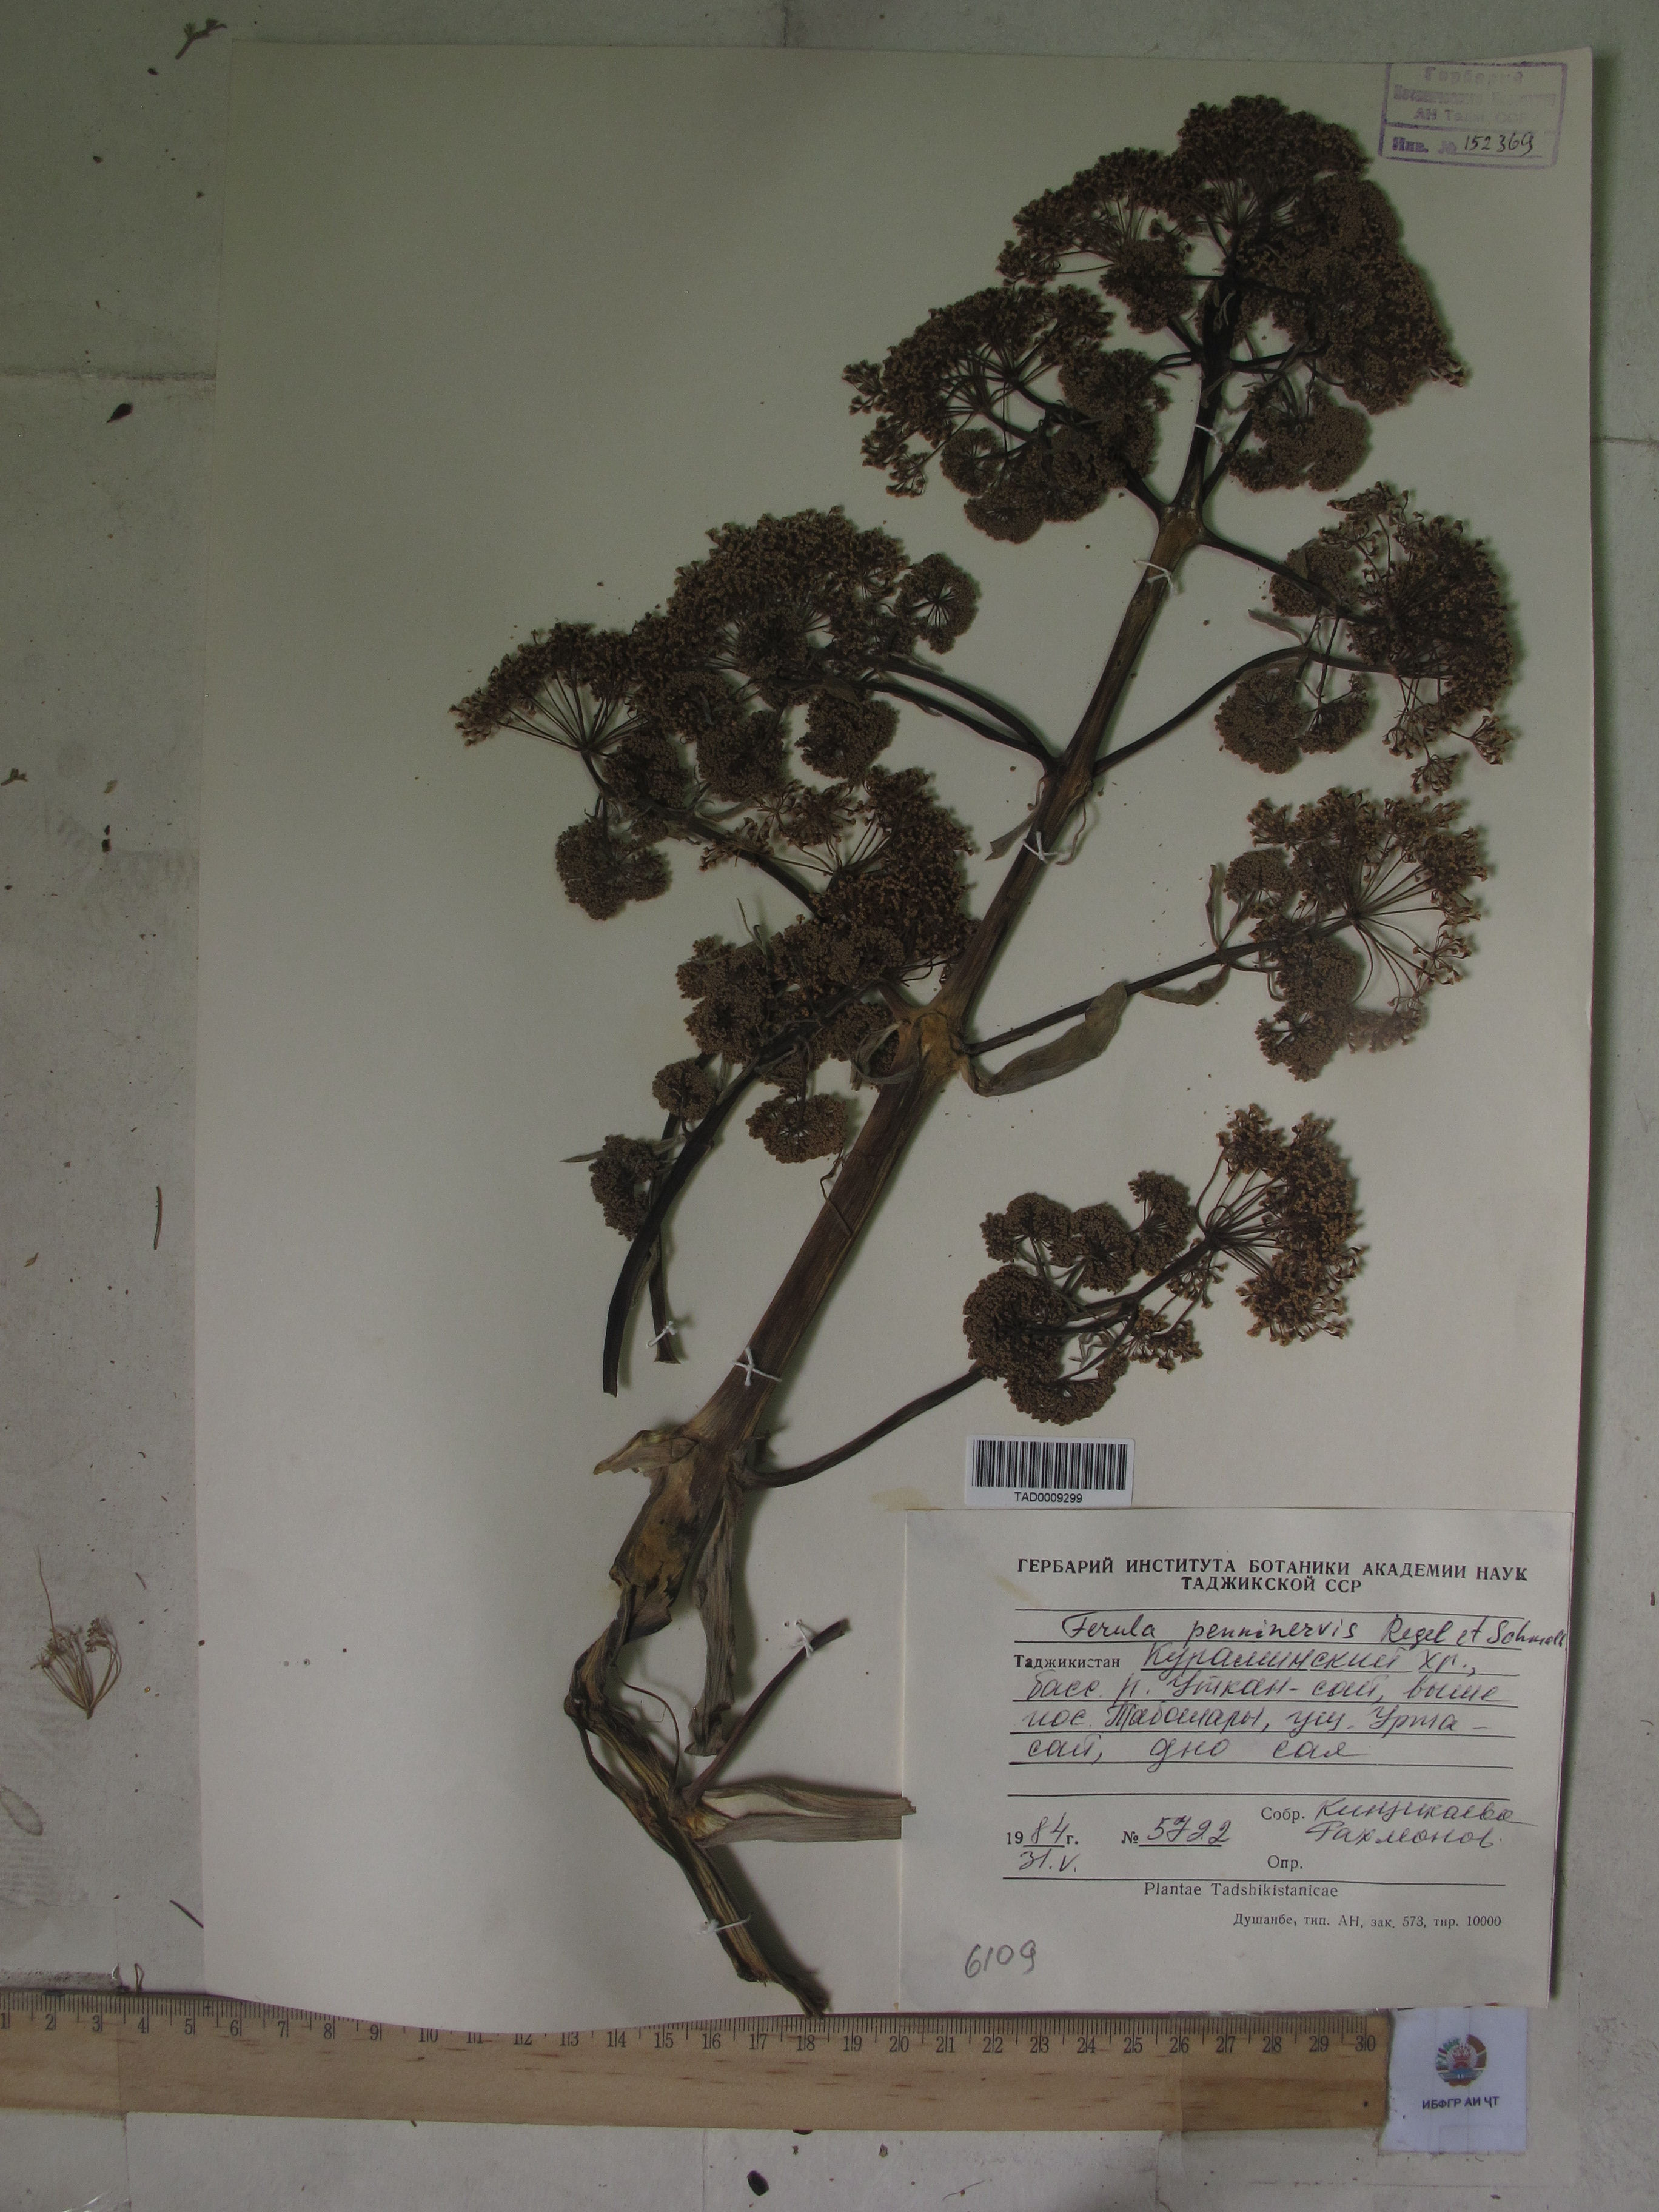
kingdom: Plantae
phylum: Tracheophyta
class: Magnoliopsida
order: Apiales
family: Apiaceae
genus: Ferula
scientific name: Ferula
